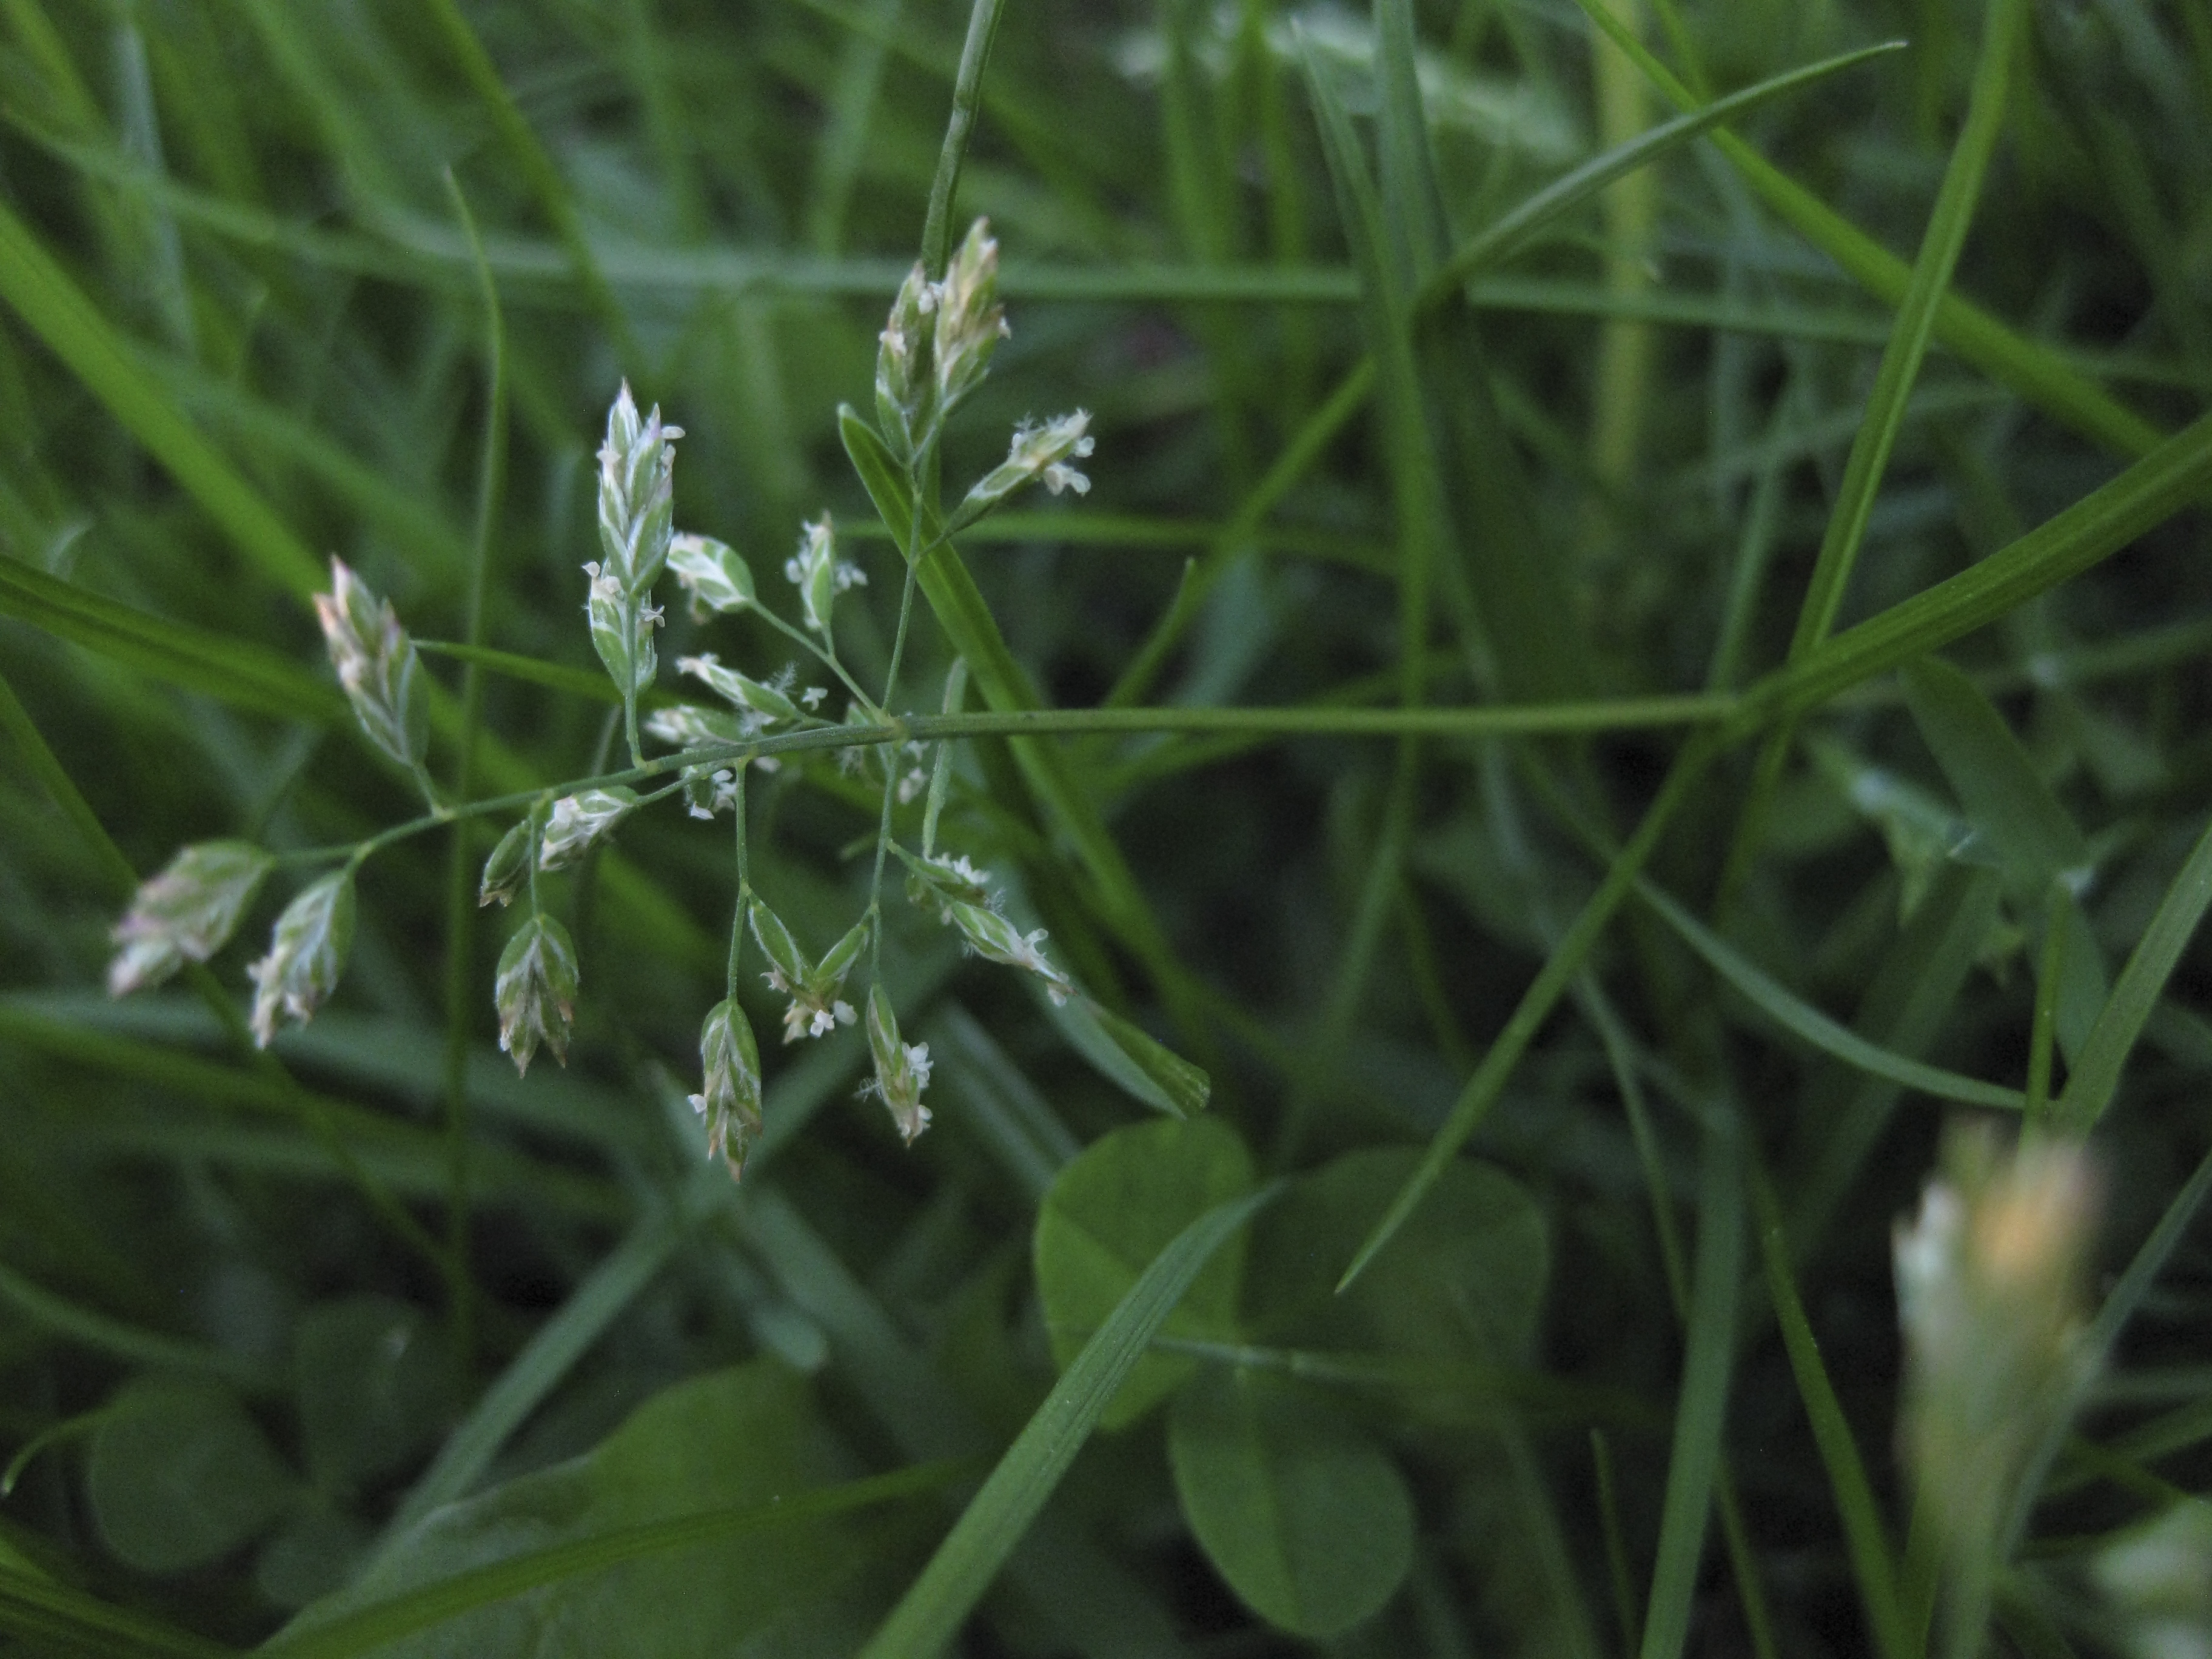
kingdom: Plantae
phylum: Tracheophyta
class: Liliopsida
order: Poales
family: Poaceae
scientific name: Poaceae
